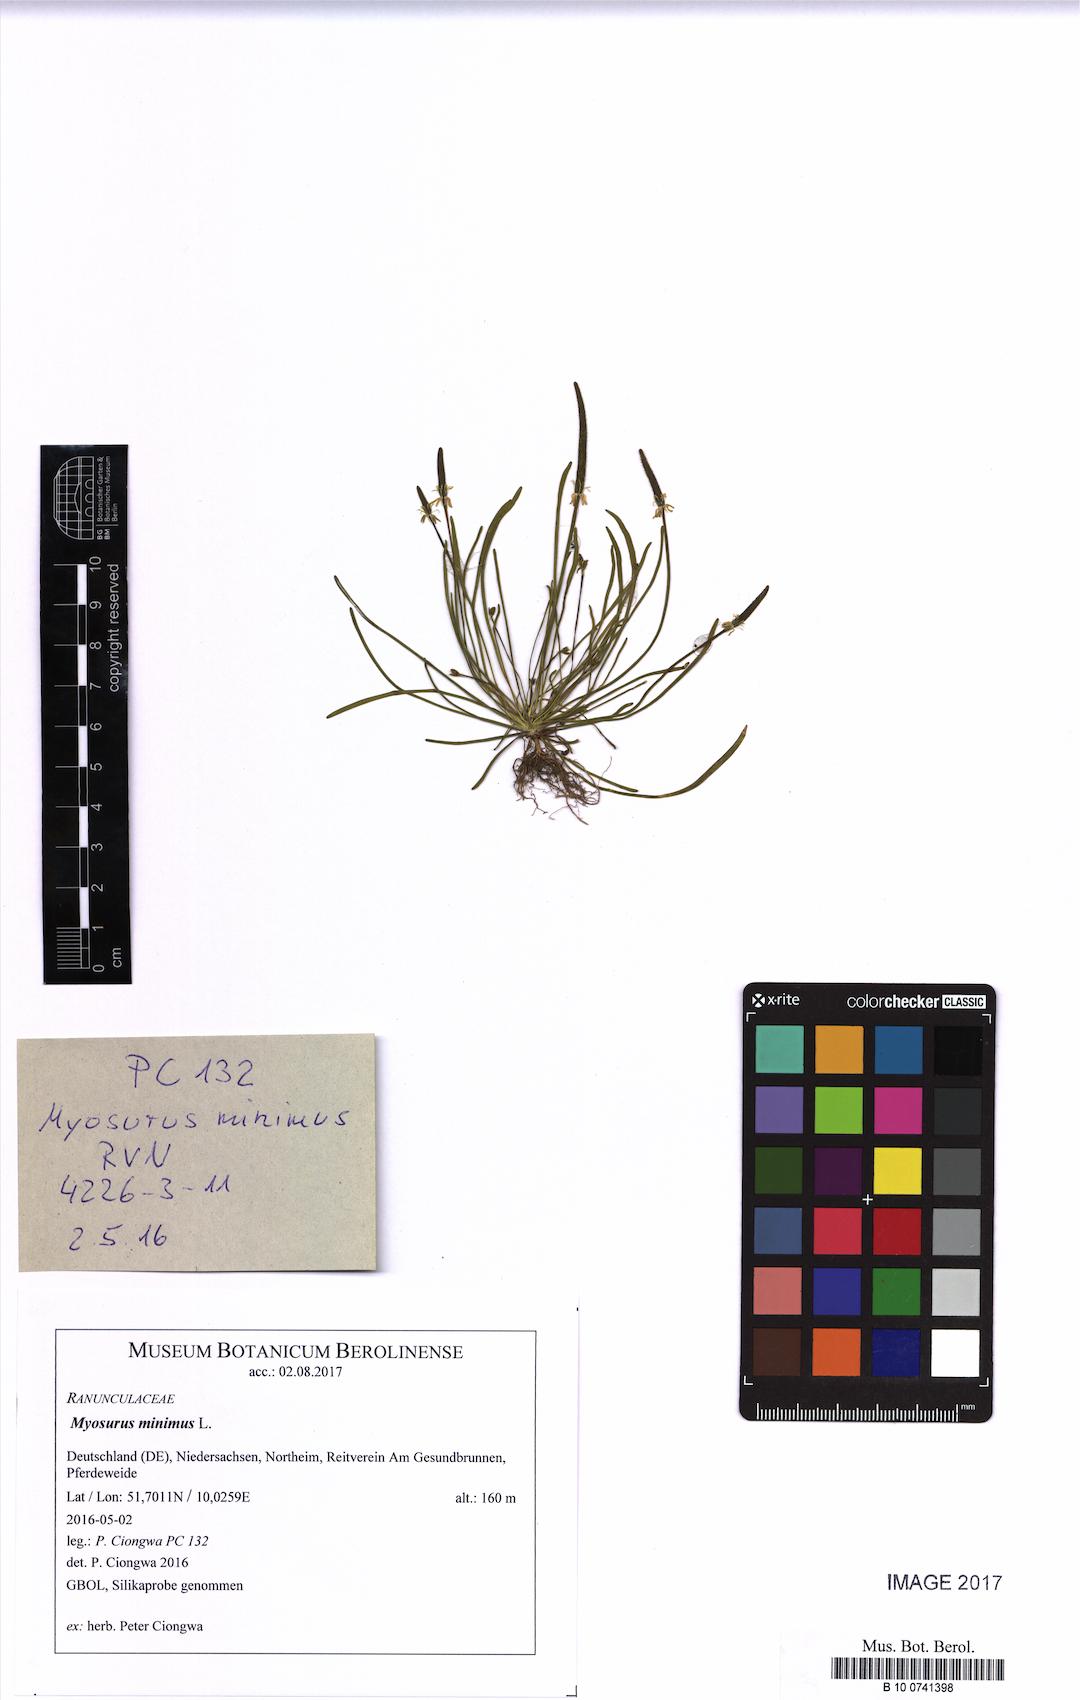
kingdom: Plantae
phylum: Tracheophyta
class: Magnoliopsida
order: Ranunculales
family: Ranunculaceae
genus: Myosurus
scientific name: Myosurus minimus
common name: Mousetail
